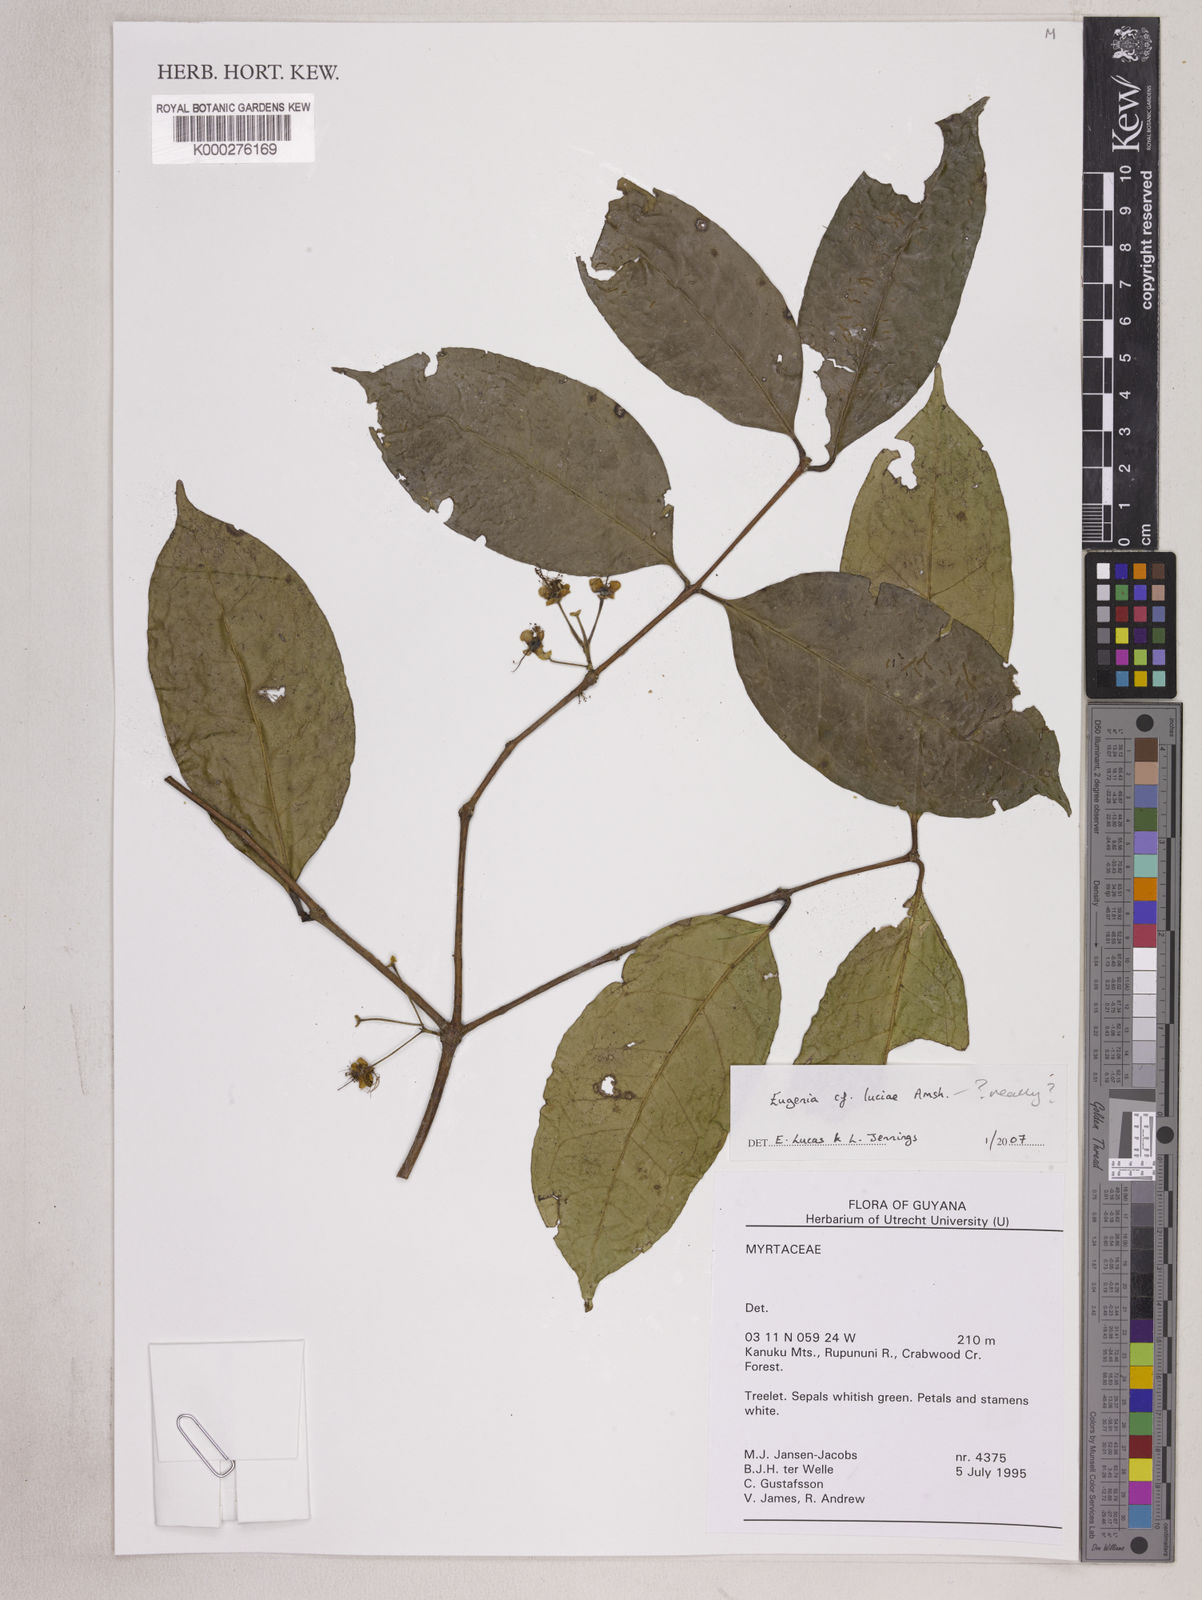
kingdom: Plantae
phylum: Tracheophyta
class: Magnoliopsida
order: Myrtales
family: Myrtaceae
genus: Eugenia
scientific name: Eugenia luciae
